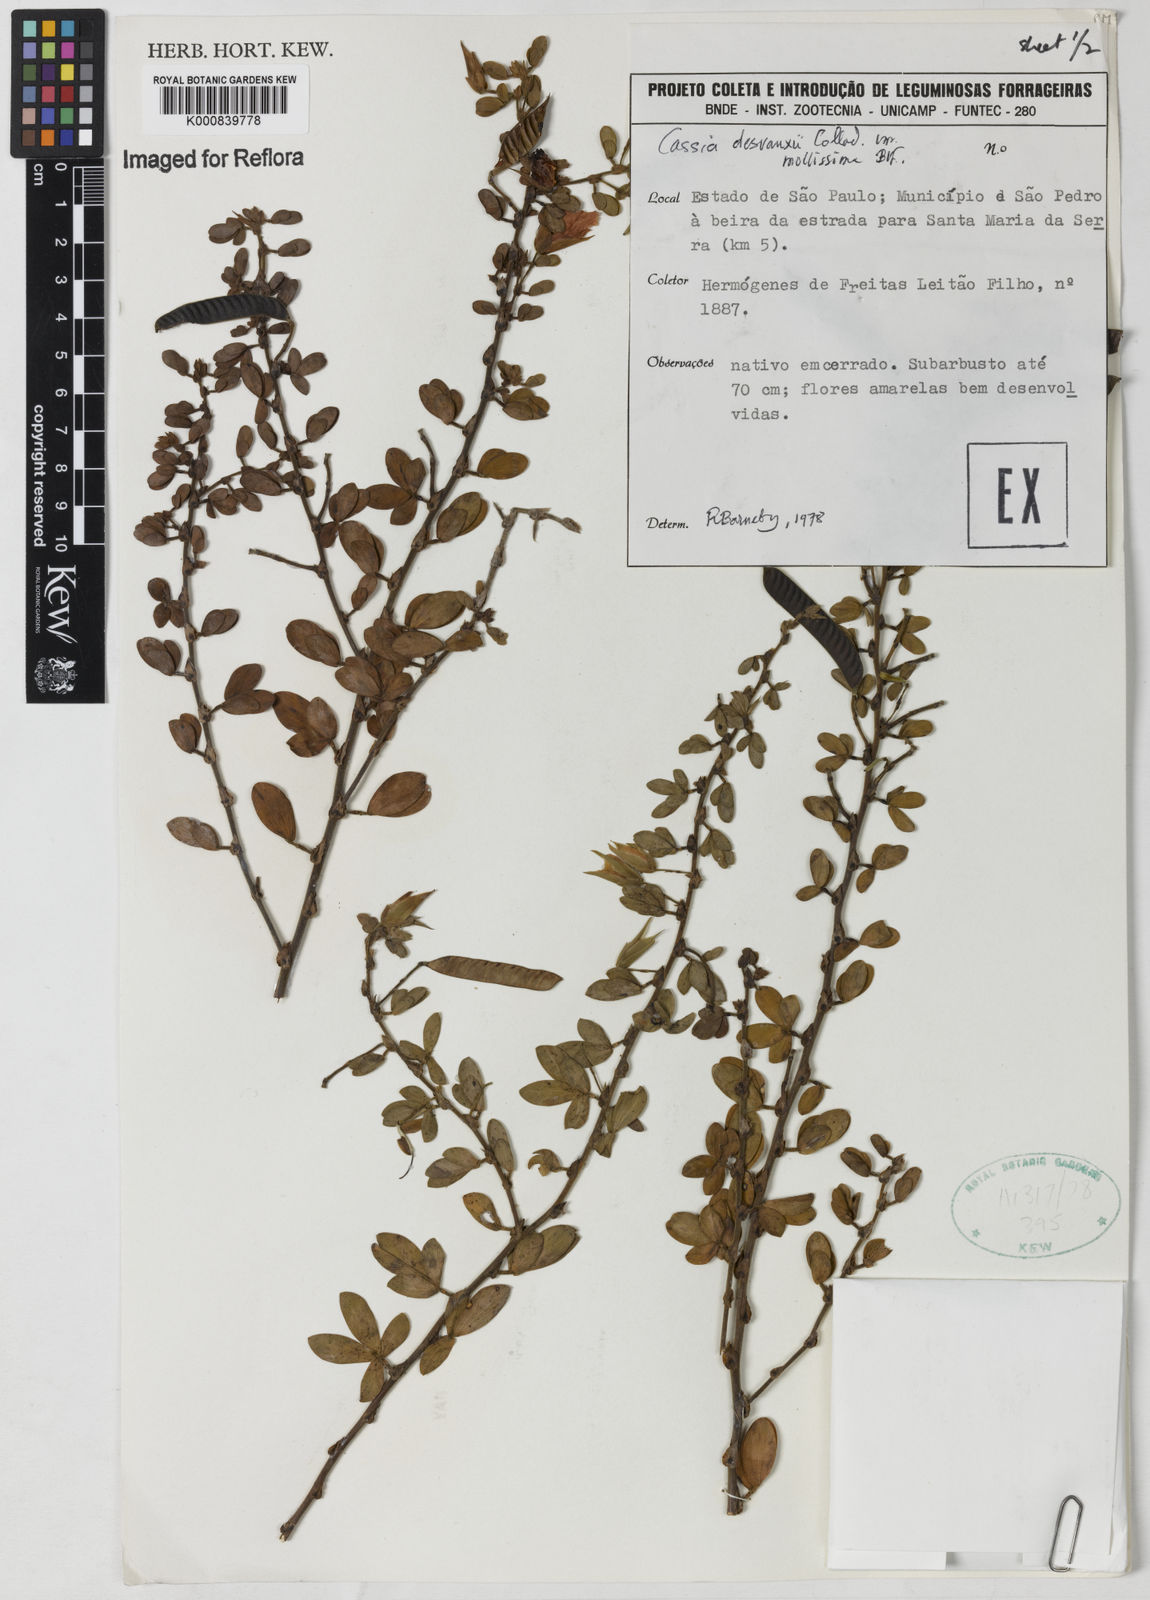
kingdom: Plantae
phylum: Tracheophyta
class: Magnoliopsida
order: Fabales
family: Fabaceae
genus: Chamaecrista
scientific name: Chamaecrista desvauxii
